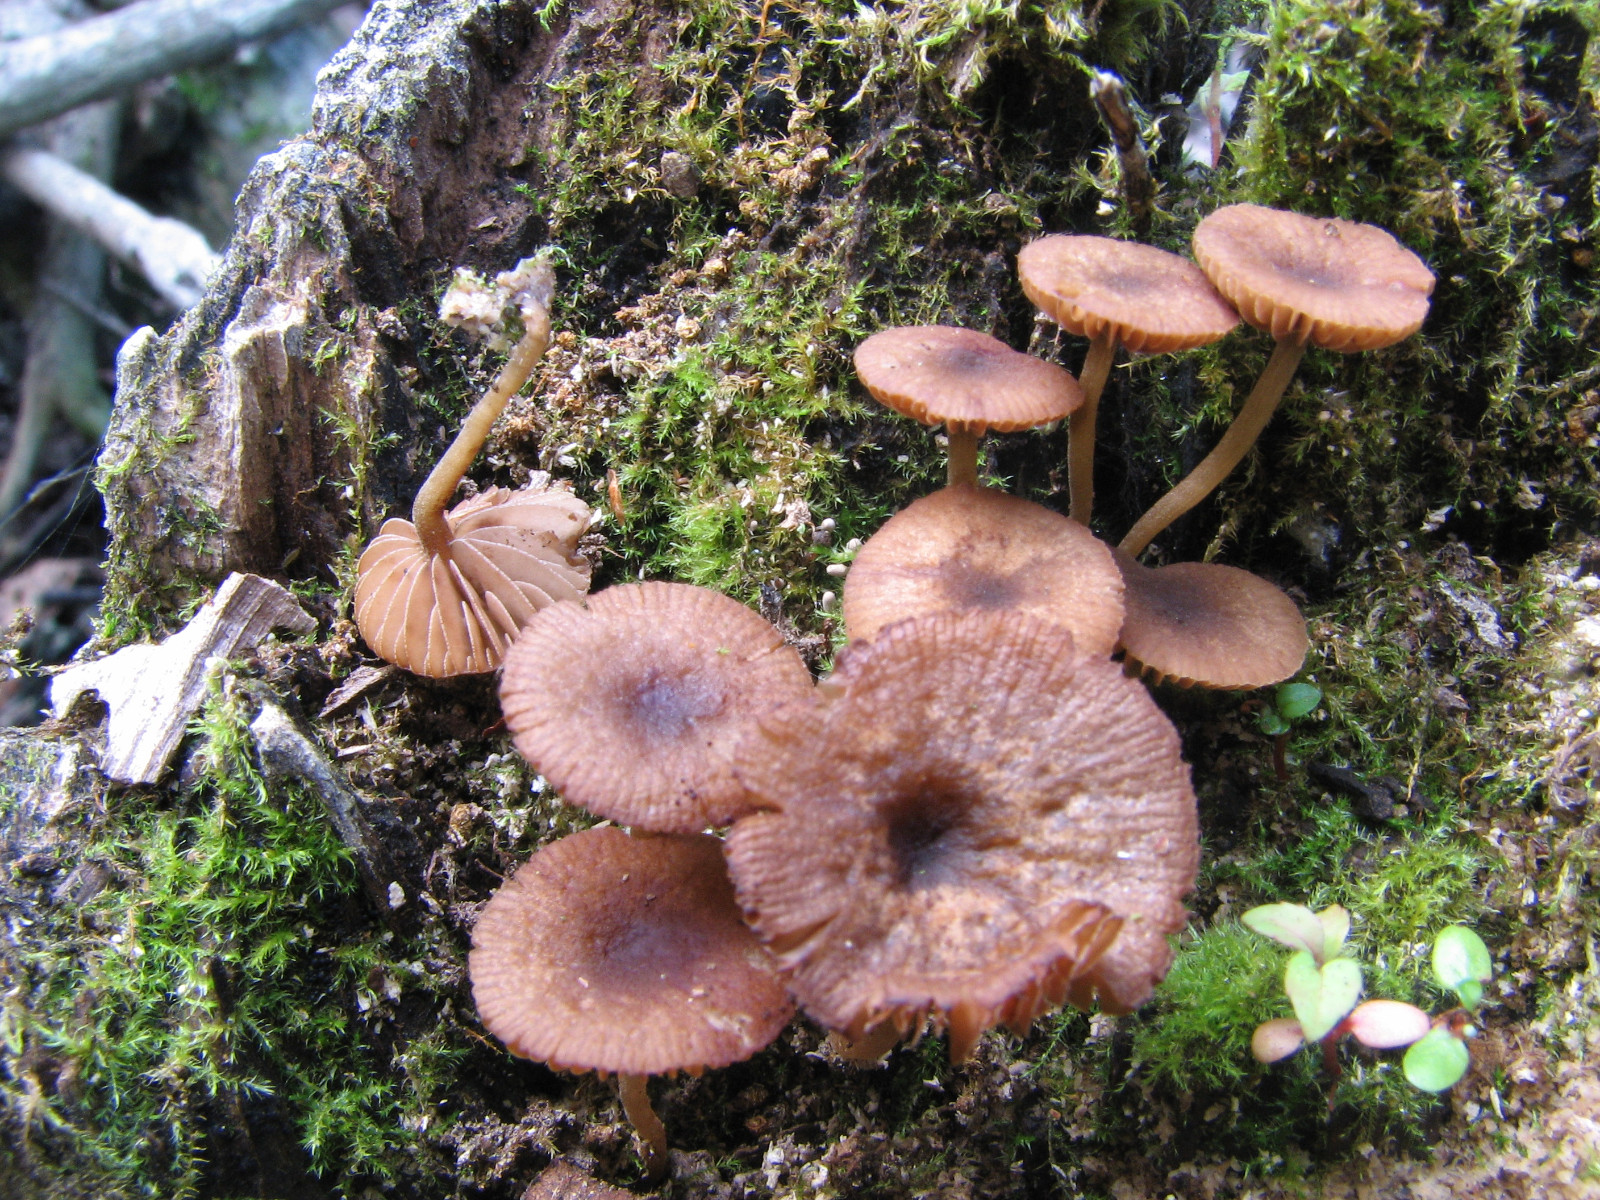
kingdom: Fungi
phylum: Basidiomycota
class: Agaricomycetes
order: Agaricales
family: Crepidotaceae
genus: Simocybe
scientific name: Simocybe
